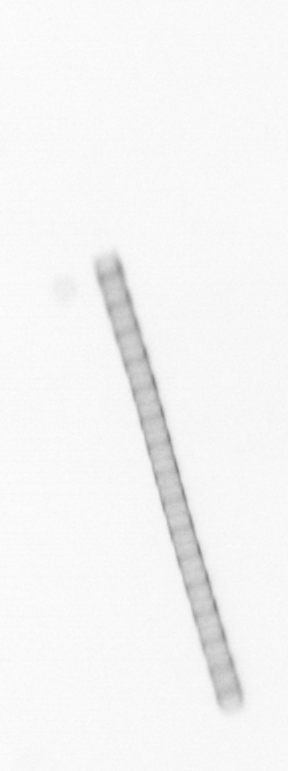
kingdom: Chromista
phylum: Ochrophyta
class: Bacillariophyceae
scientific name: Bacillariophyceae
